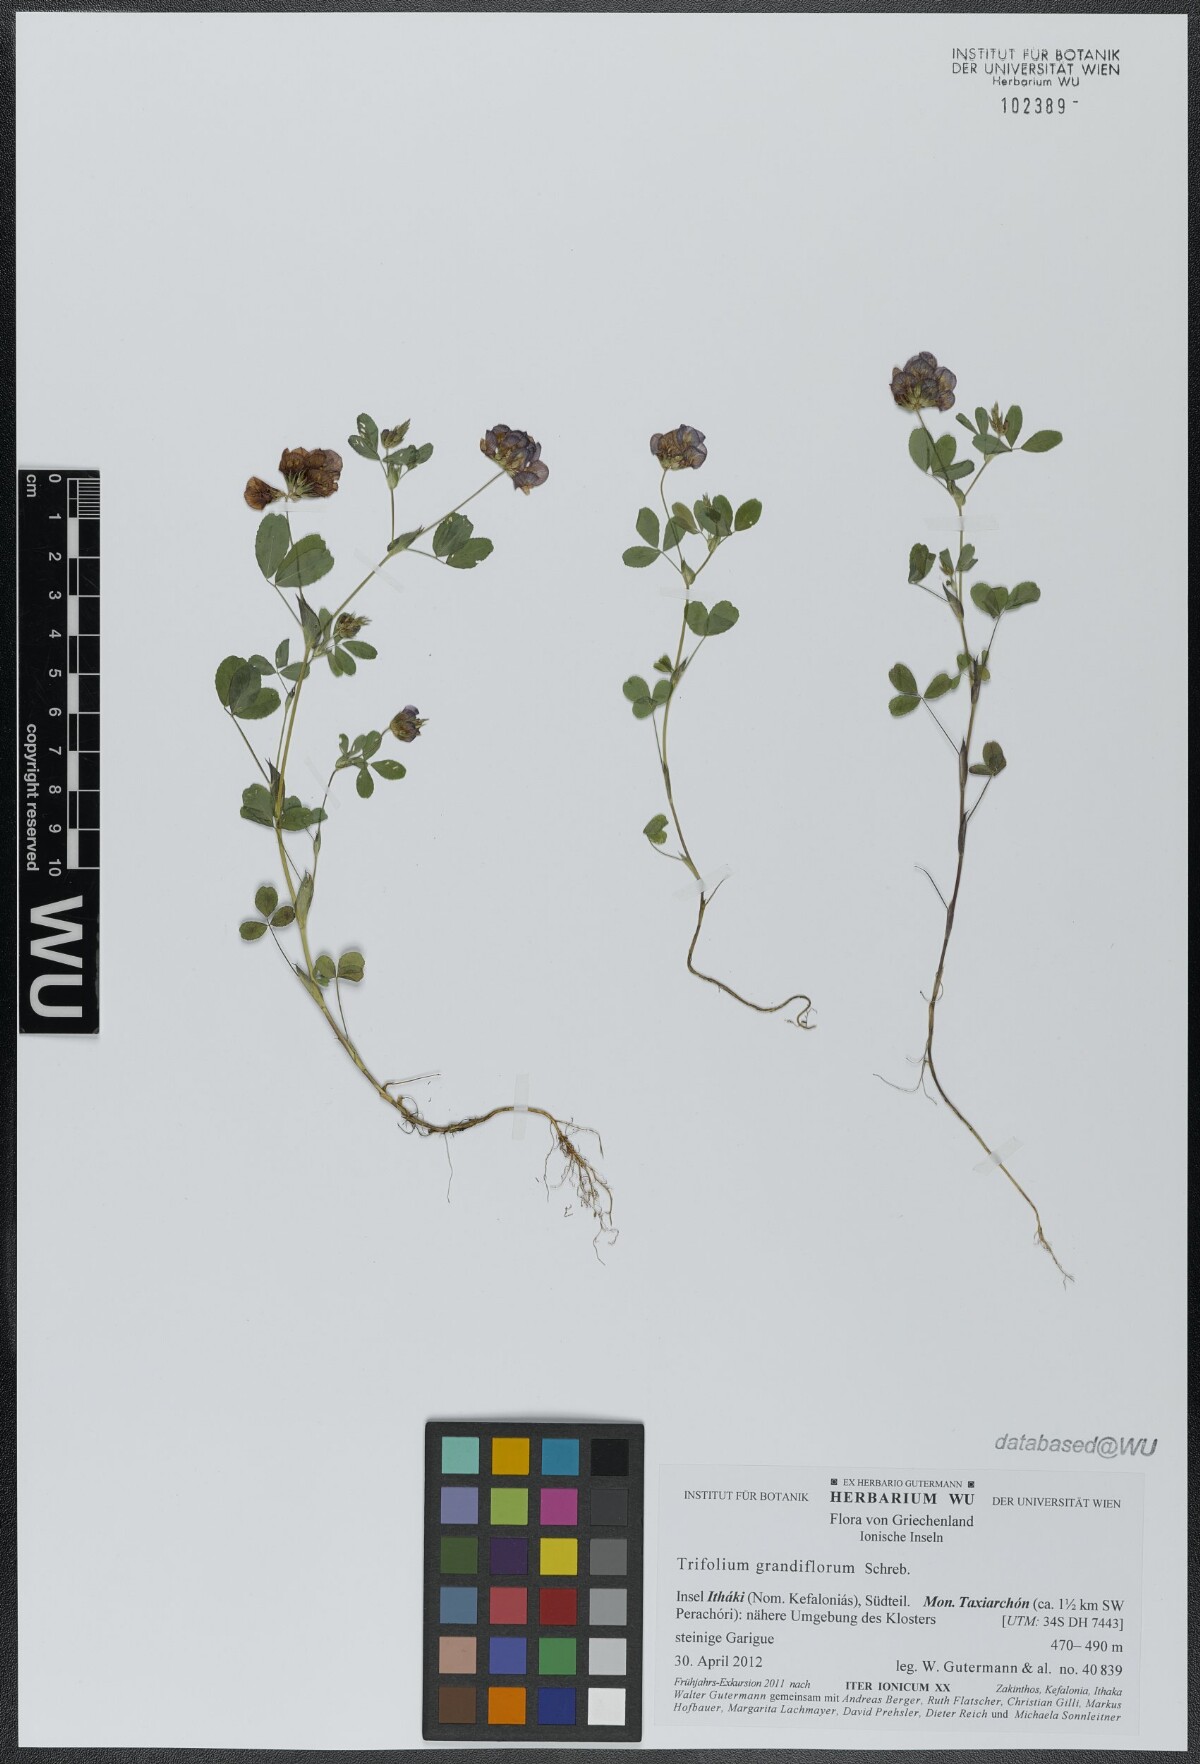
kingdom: Plantae
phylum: Tracheophyta
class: Magnoliopsida
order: Fabales
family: Fabaceae
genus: Trifolium
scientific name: Trifolium grandiflorum
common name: Large-flower hop clover
